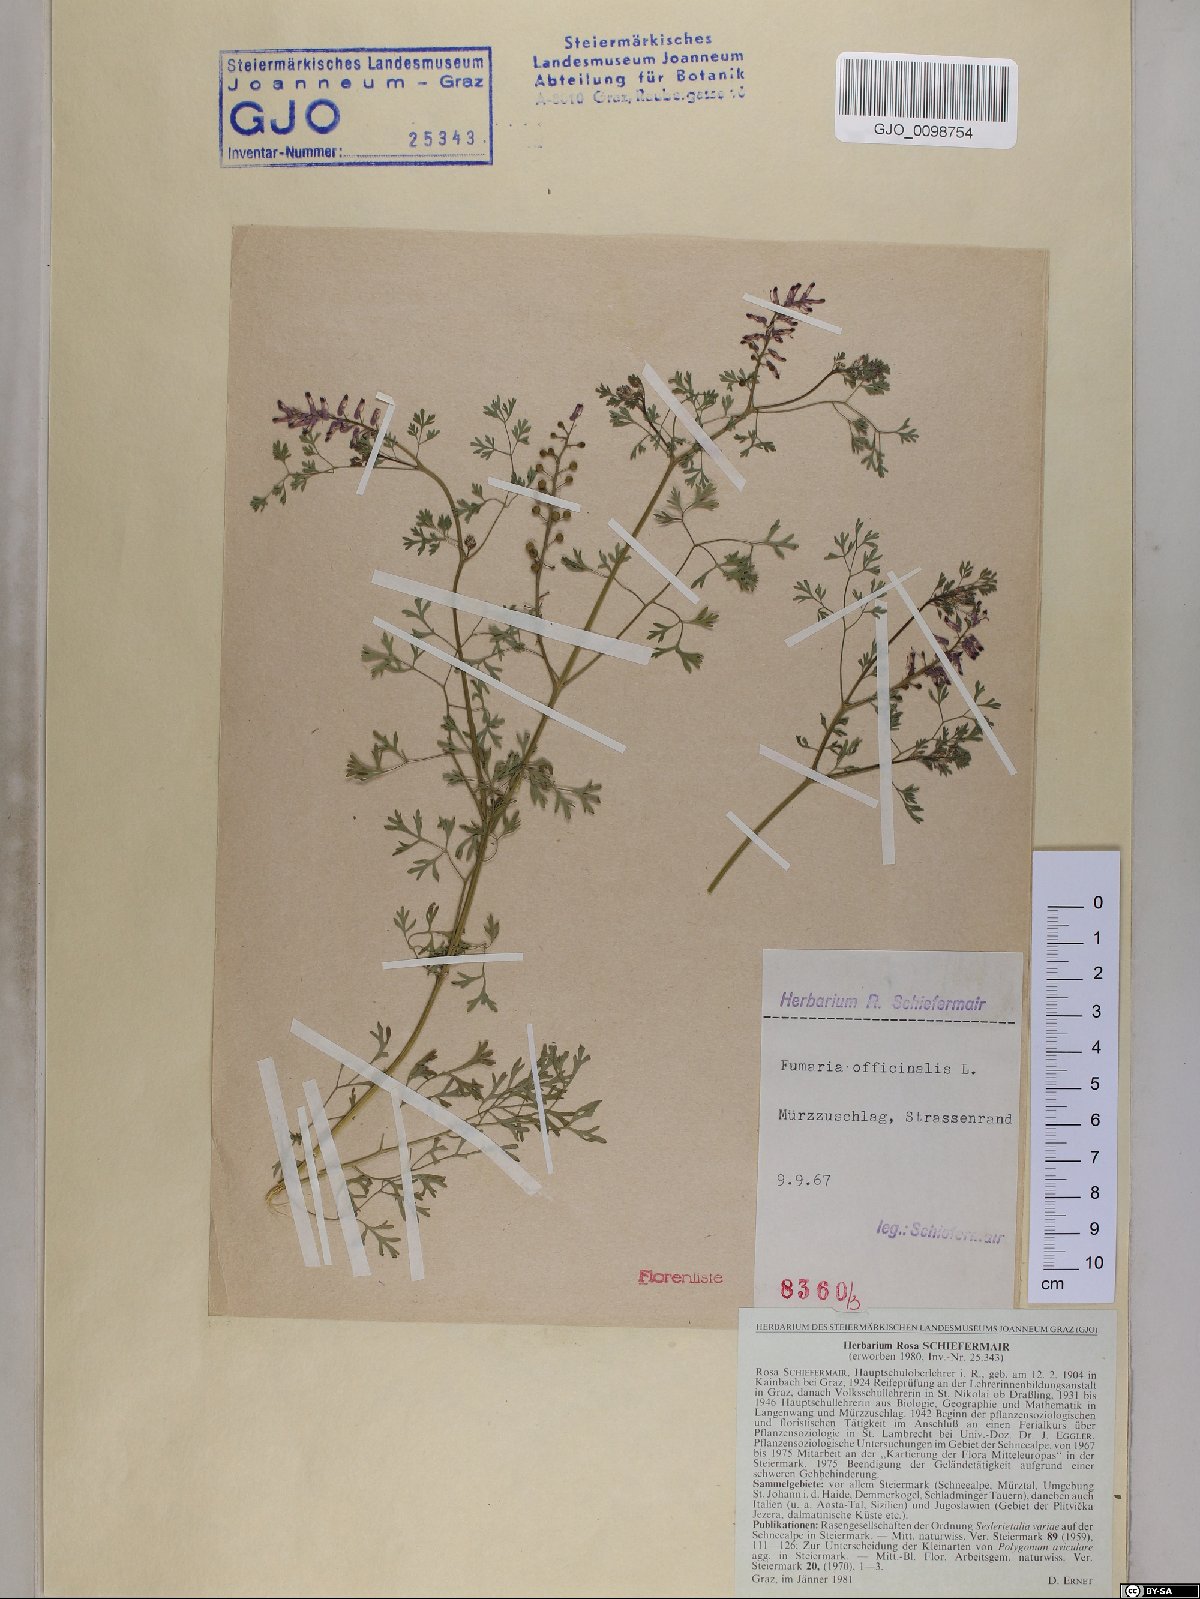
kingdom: Plantae
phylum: Tracheophyta
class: Magnoliopsida
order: Ranunculales
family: Papaveraceae
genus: Fumaria
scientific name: Fumaria officinalis
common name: Common fumitory
